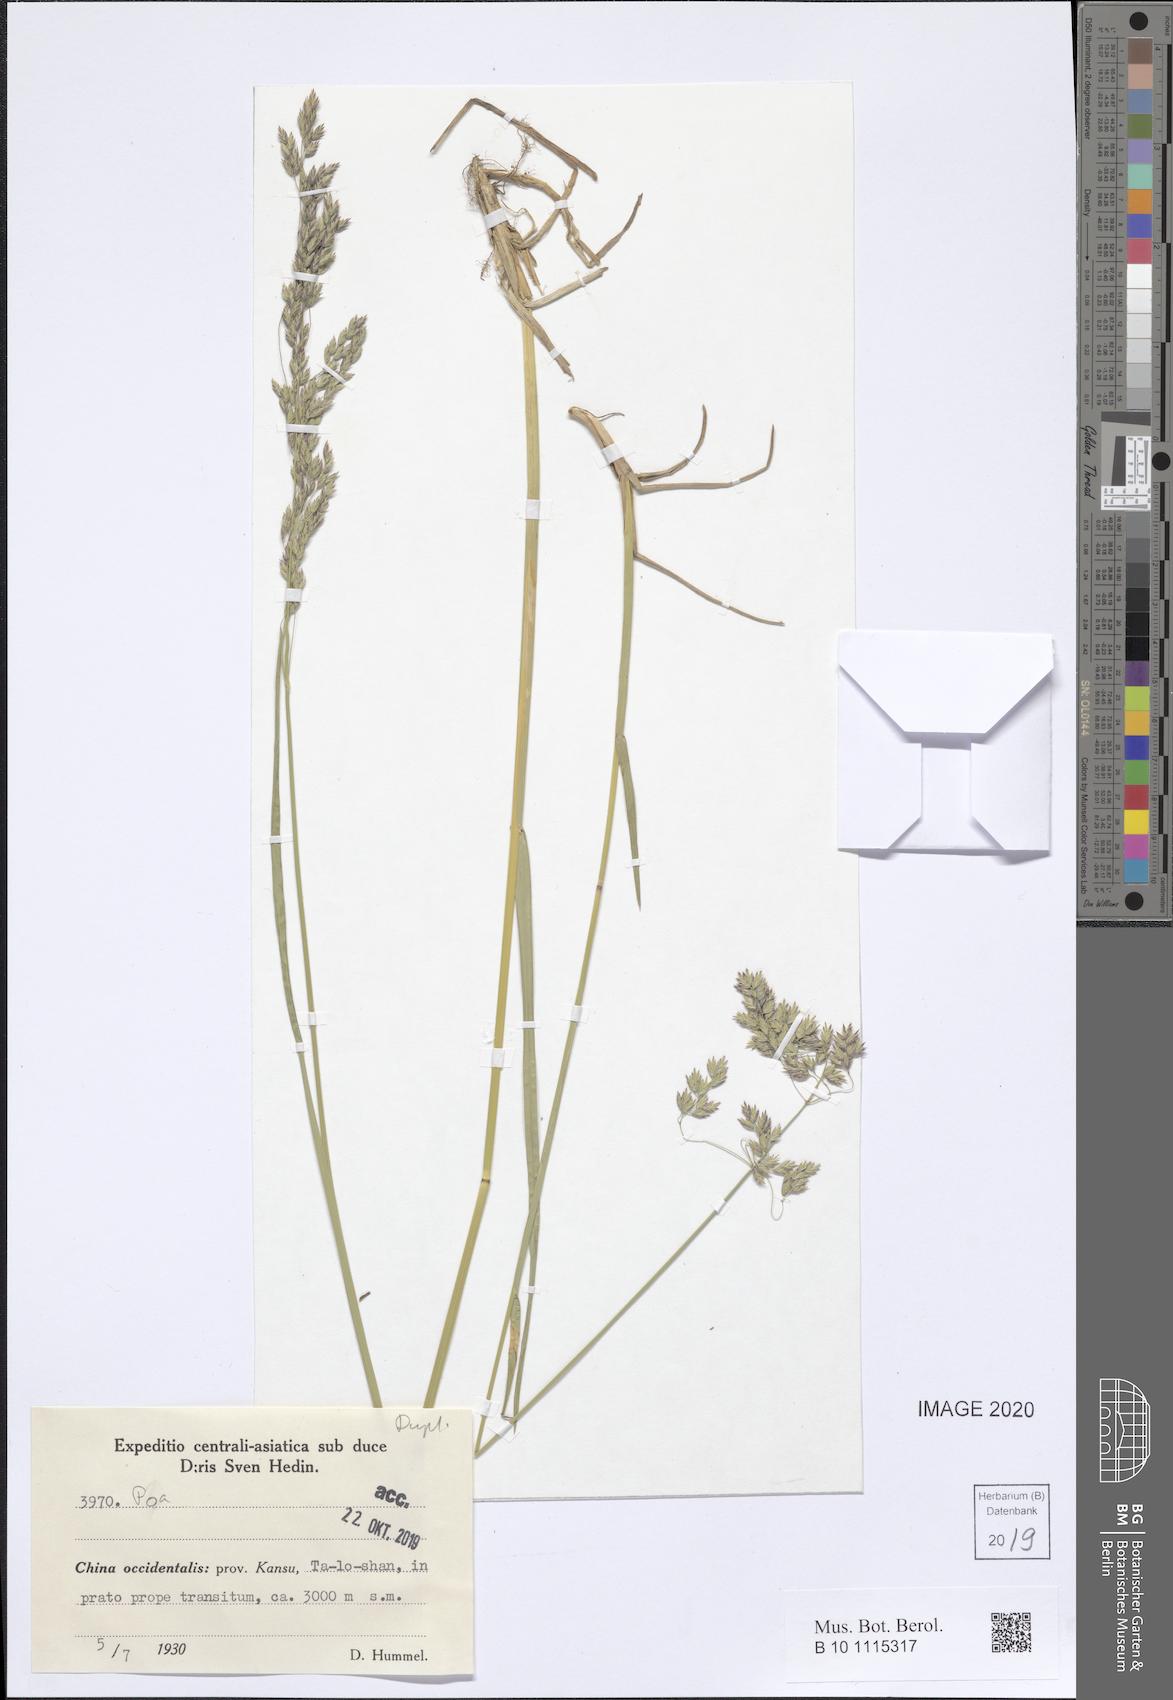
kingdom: Plantae
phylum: Tracheophyta
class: Liliopsida
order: Poales
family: Poaceae
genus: Poa
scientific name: Poa
